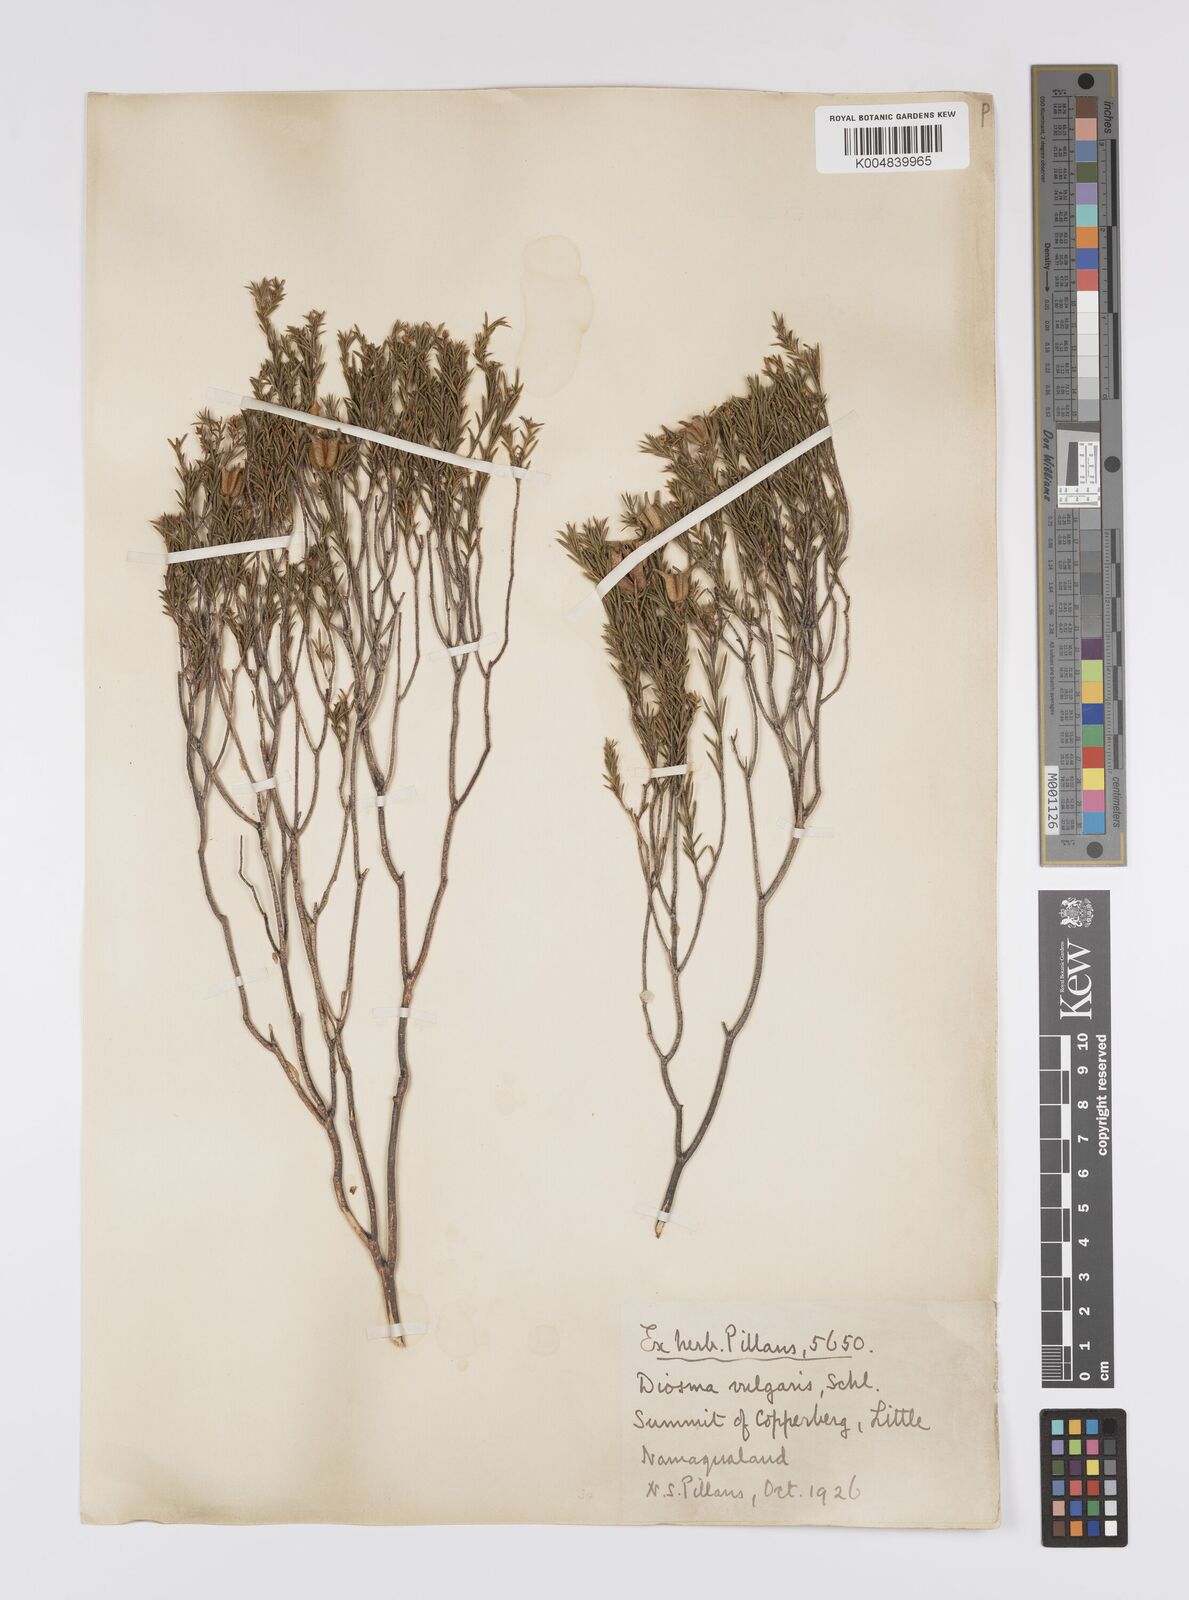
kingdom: Plantae
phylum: Tracheophyta
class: Magnoliopsida
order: Sapindales
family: Rutaceae
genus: Diosma
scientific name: Diosma acmaeophylla
